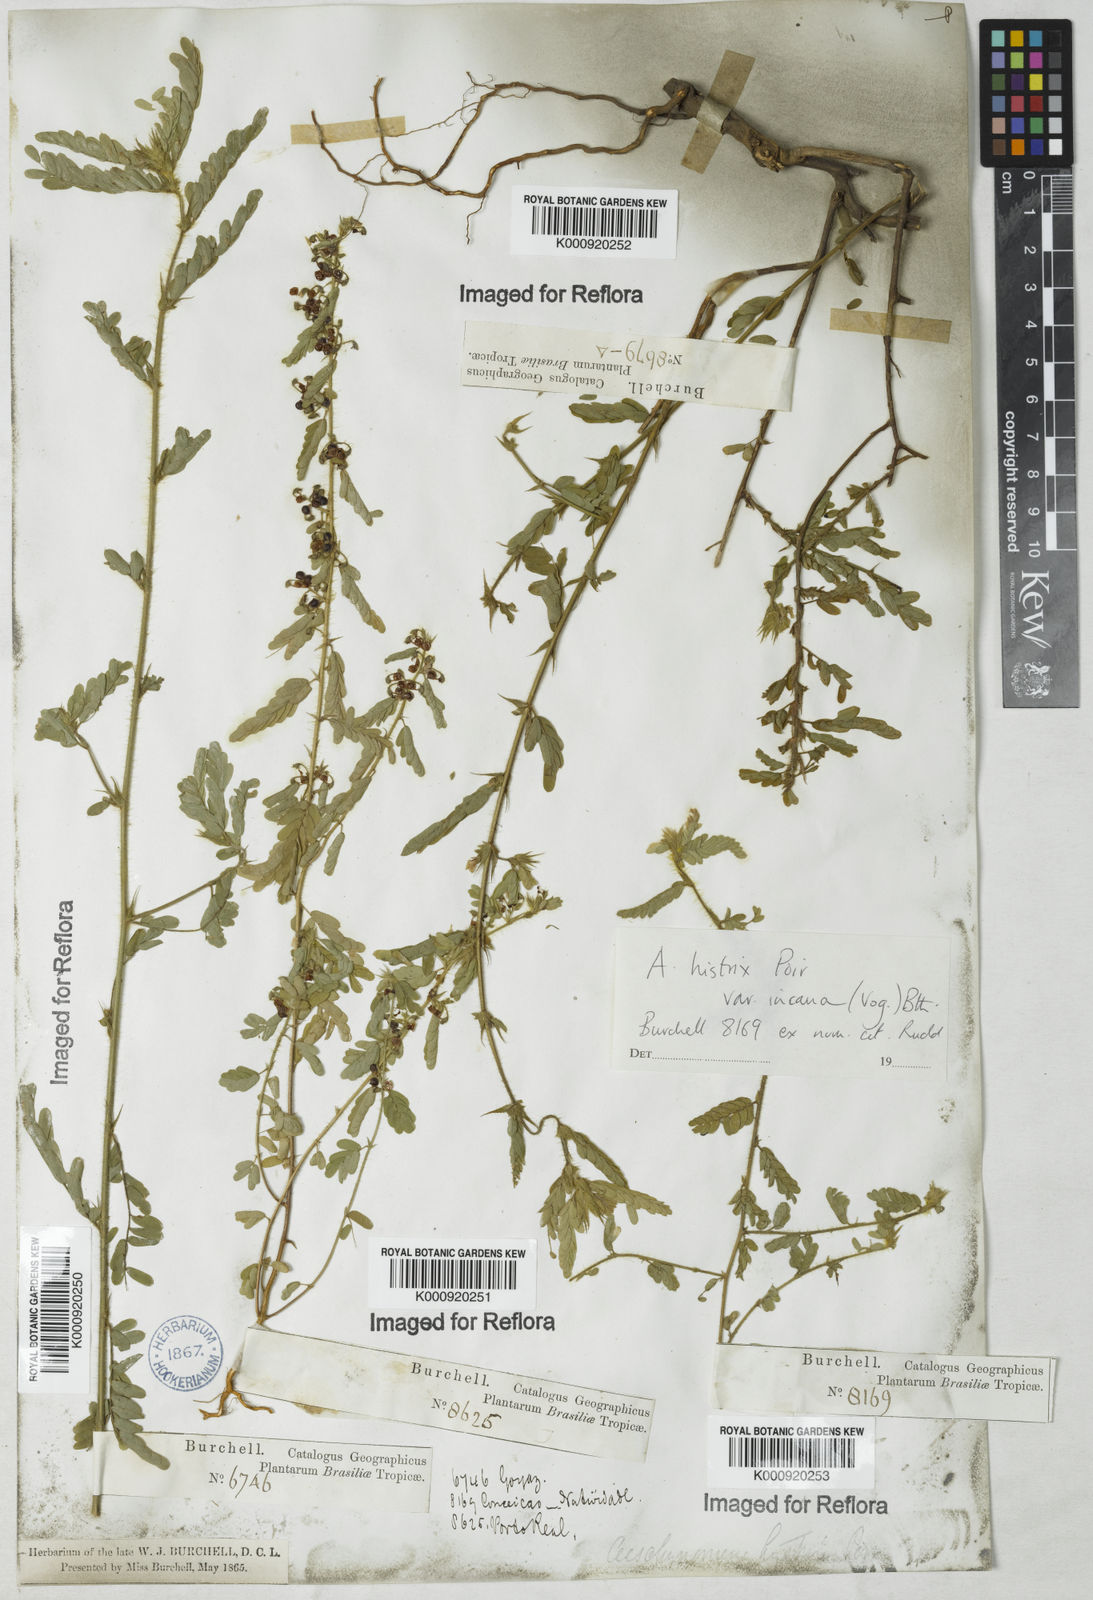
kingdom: Plantae
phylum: Tracheophyta
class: Magnoliopsida
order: Fabales
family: Fabaceae
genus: Ctenodon
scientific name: Ctenodon histrix
